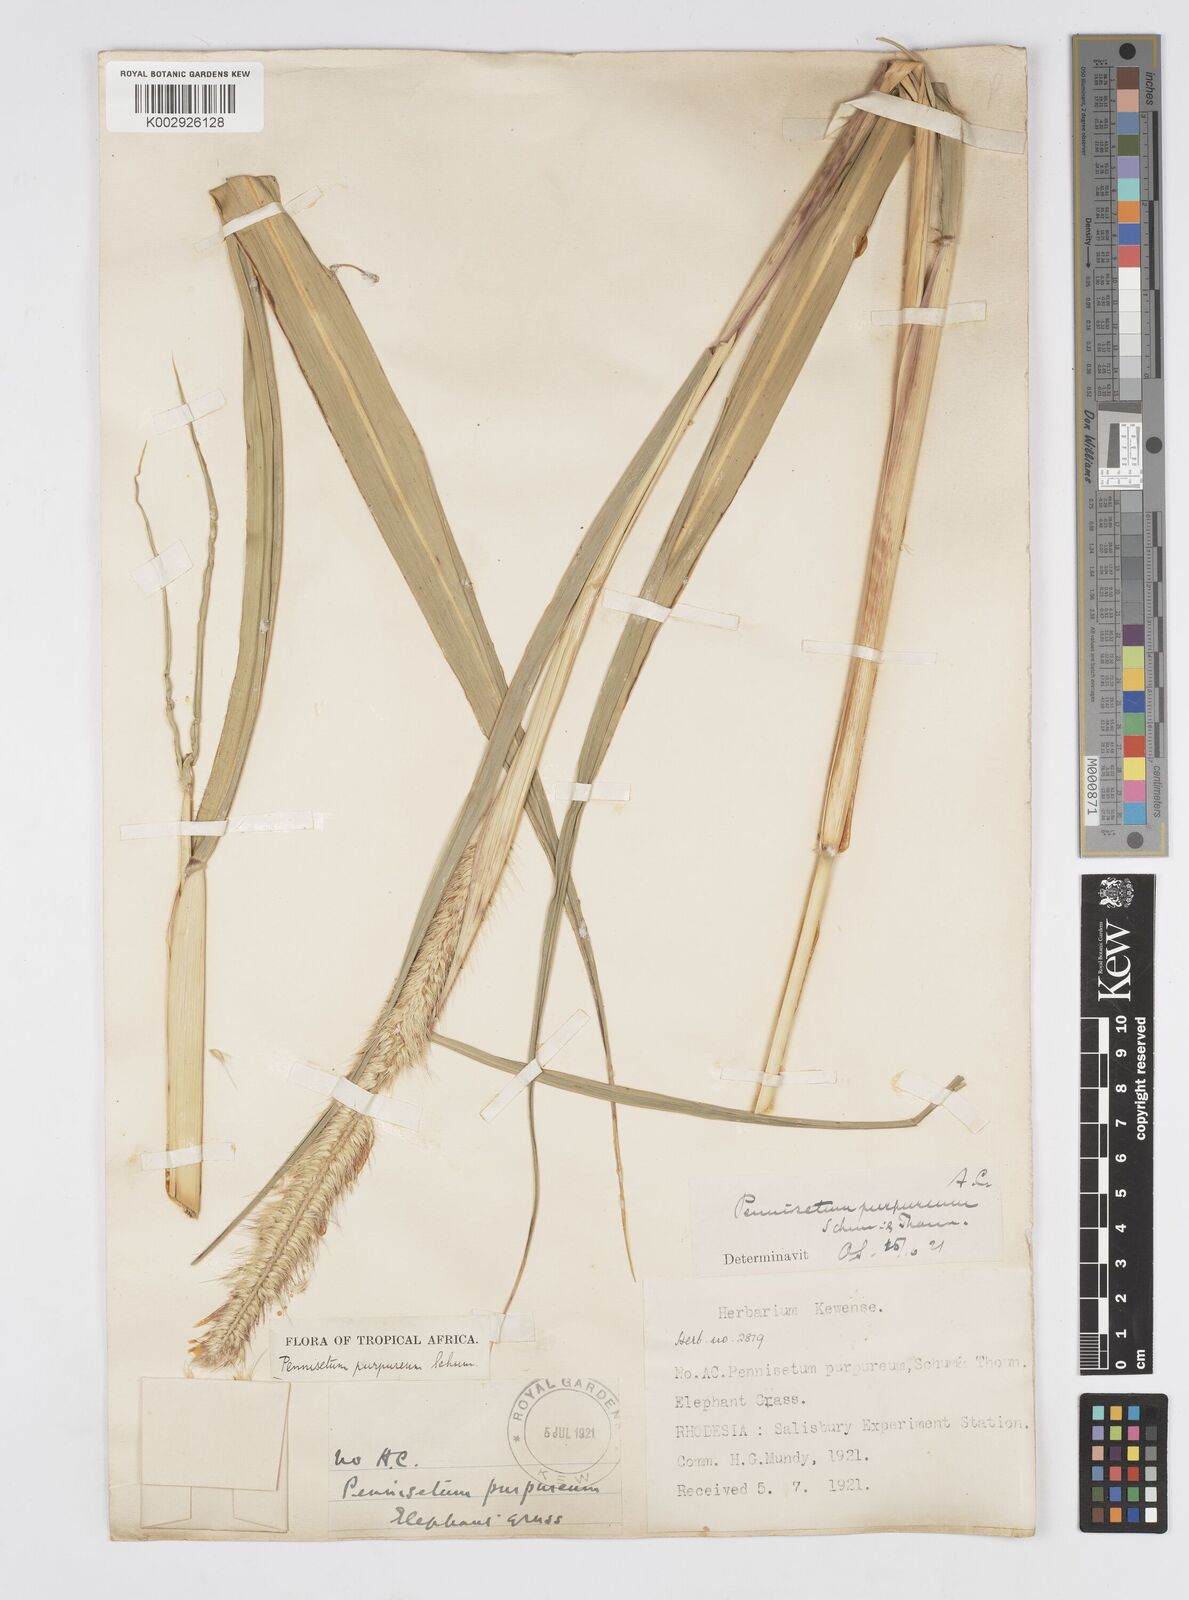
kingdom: Plantae
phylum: Tracheophyta
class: Liliopsida
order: Poales
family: Poaceae
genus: Cenchrus
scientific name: Cenchrus purpureus
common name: Elephant grass
